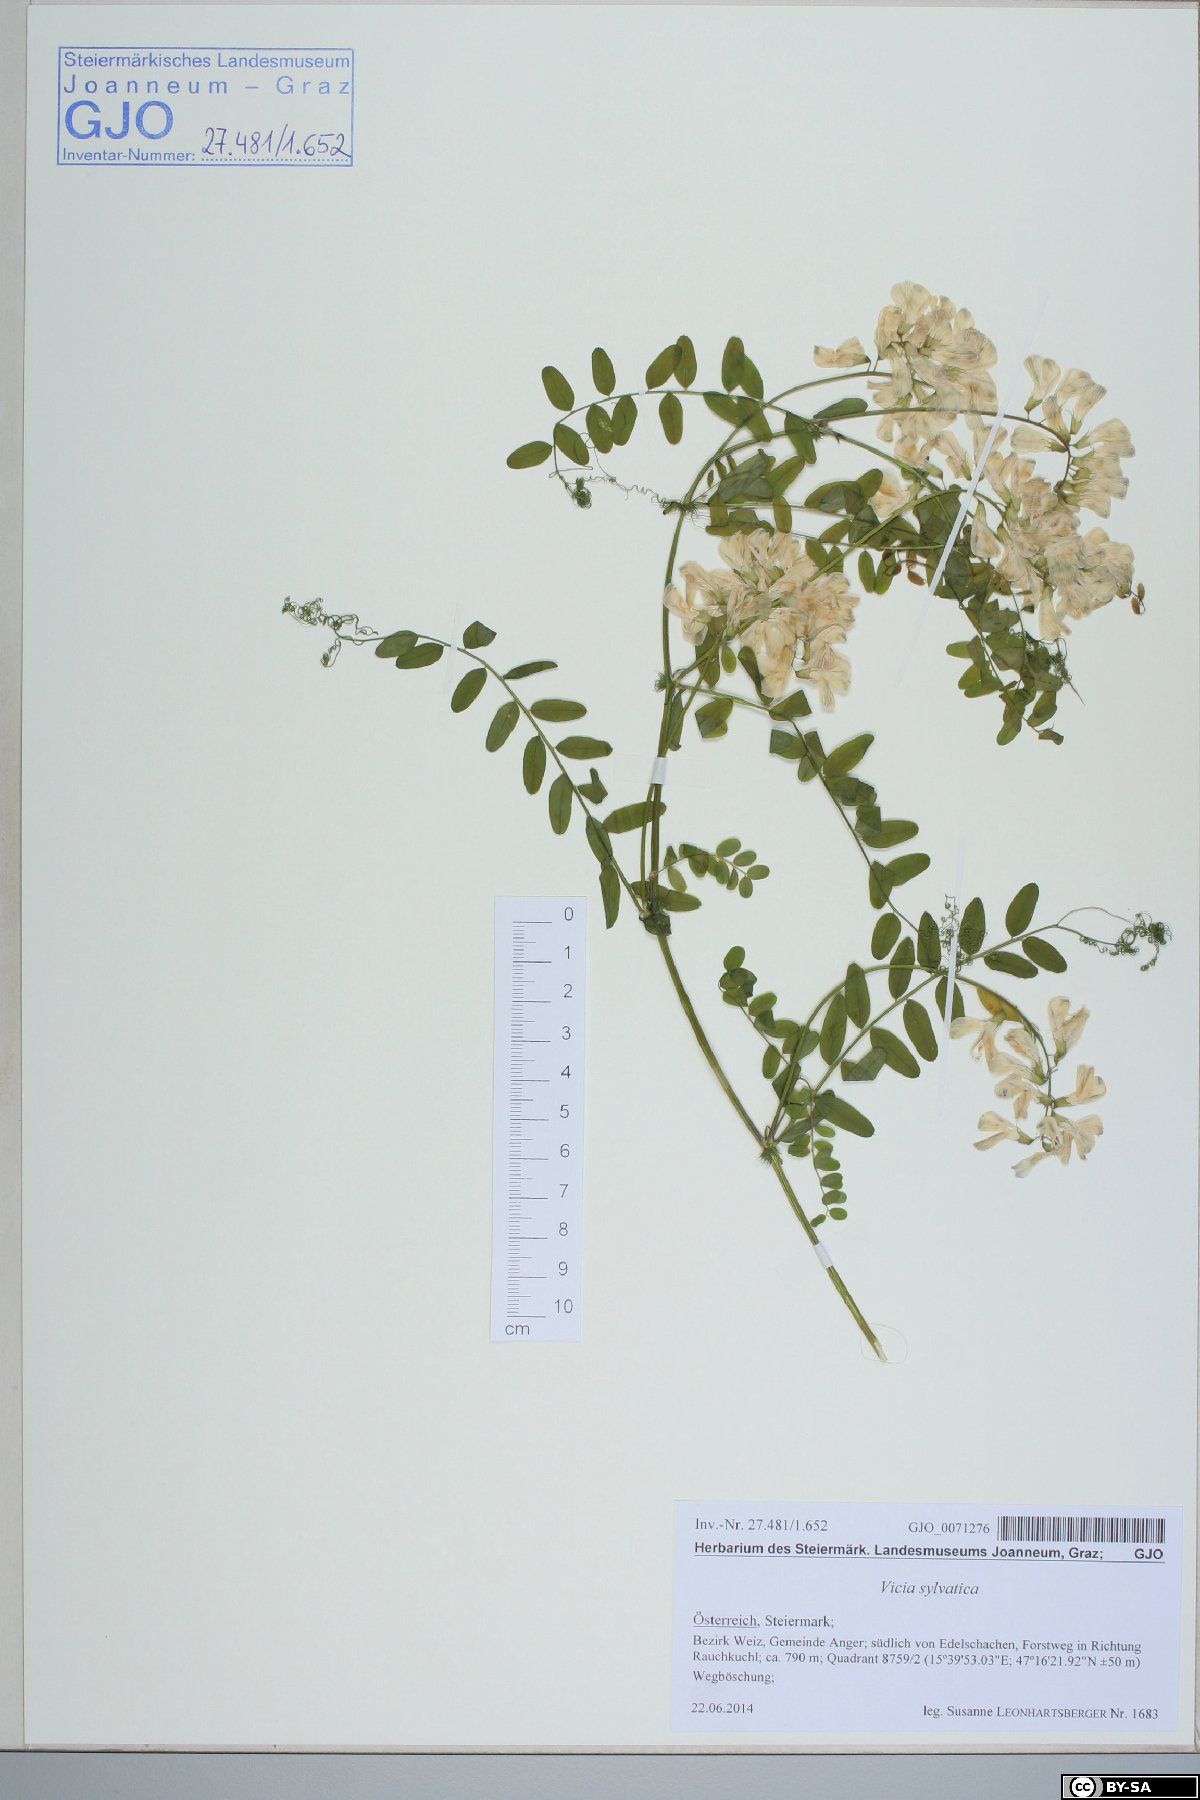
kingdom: Plantae
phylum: Tracheophyta
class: Magnoliopsida
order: Fabales
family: Fabaceae
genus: Vicia
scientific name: Vicia sylvatica
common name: Wood vetch
